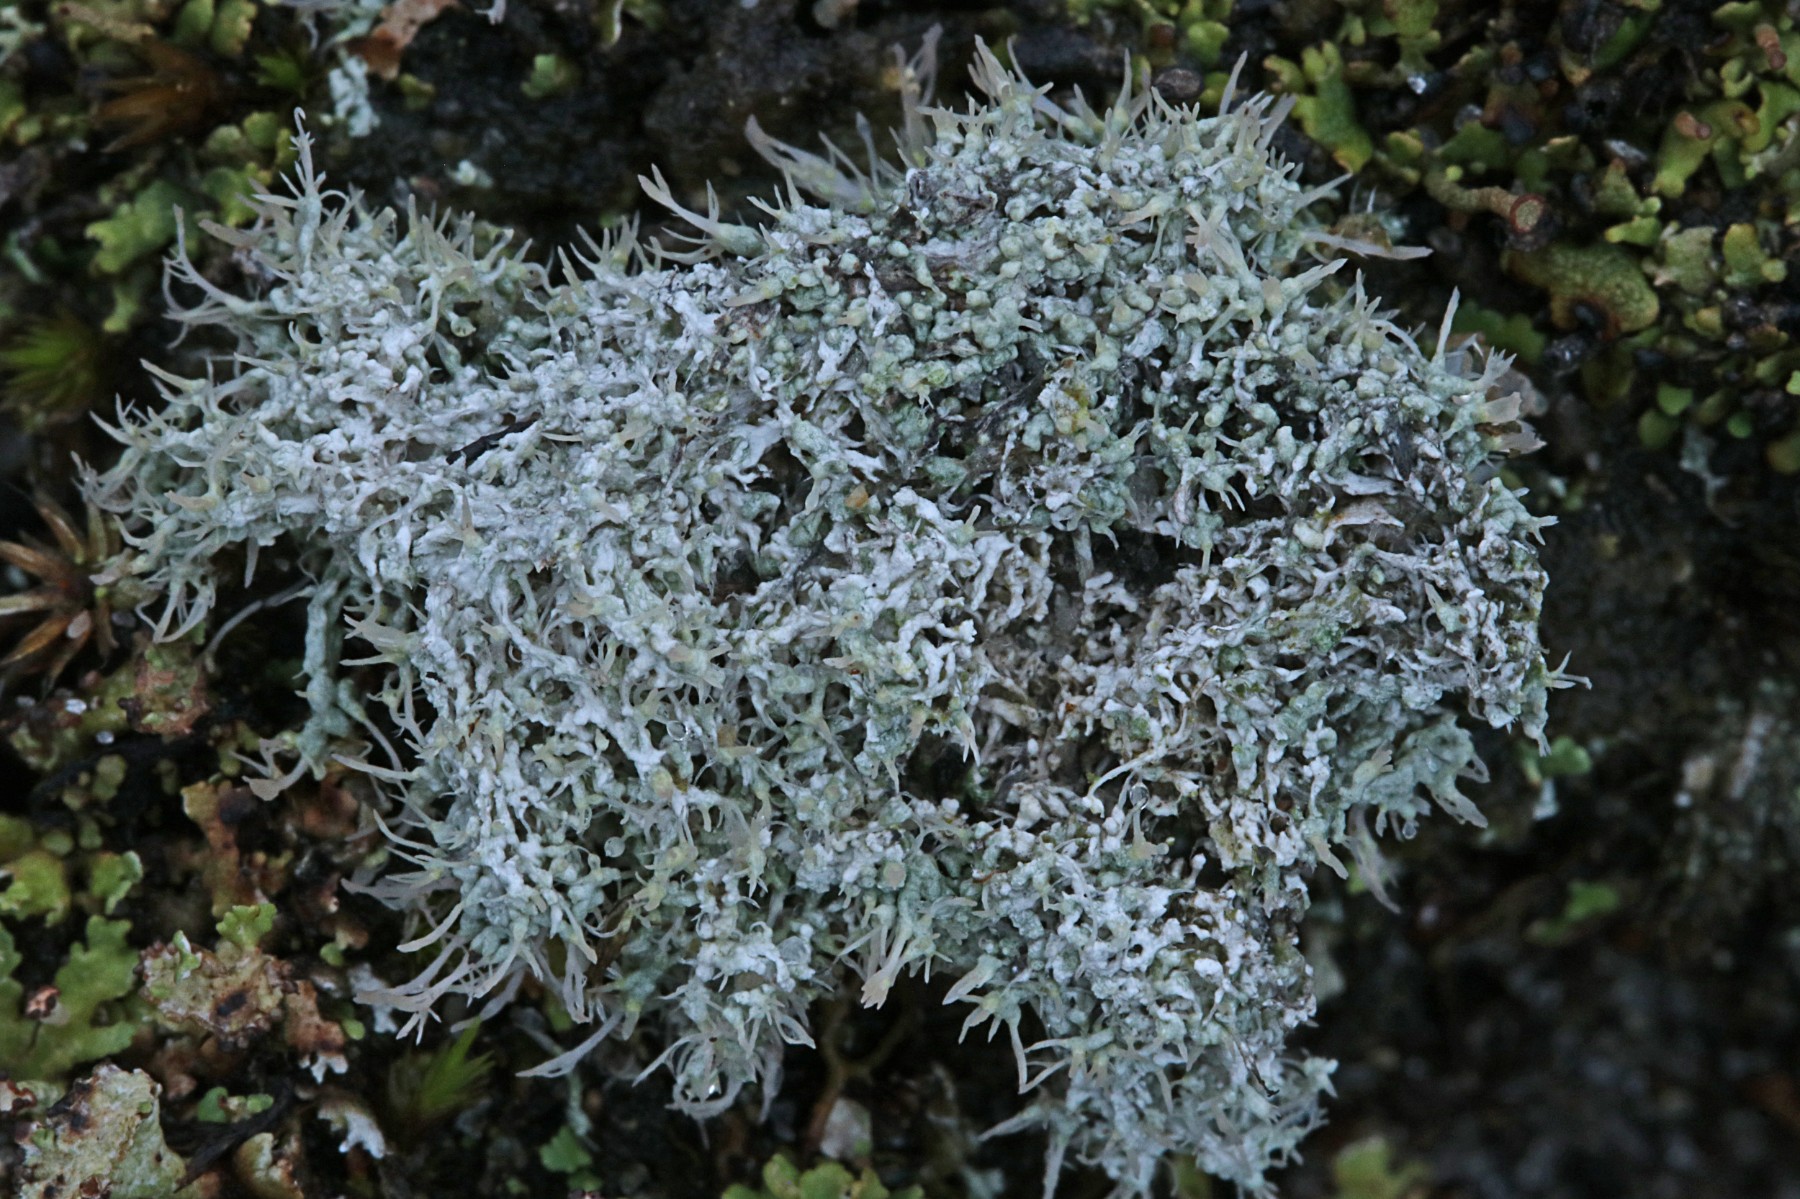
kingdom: Fungi
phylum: Ascomycota
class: Lecanoromycetes
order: Pertusariales
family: Ochrolechiaceae
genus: Ochrolechia
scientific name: Ochrolechia frigida
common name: fjeld-blegskivelav
